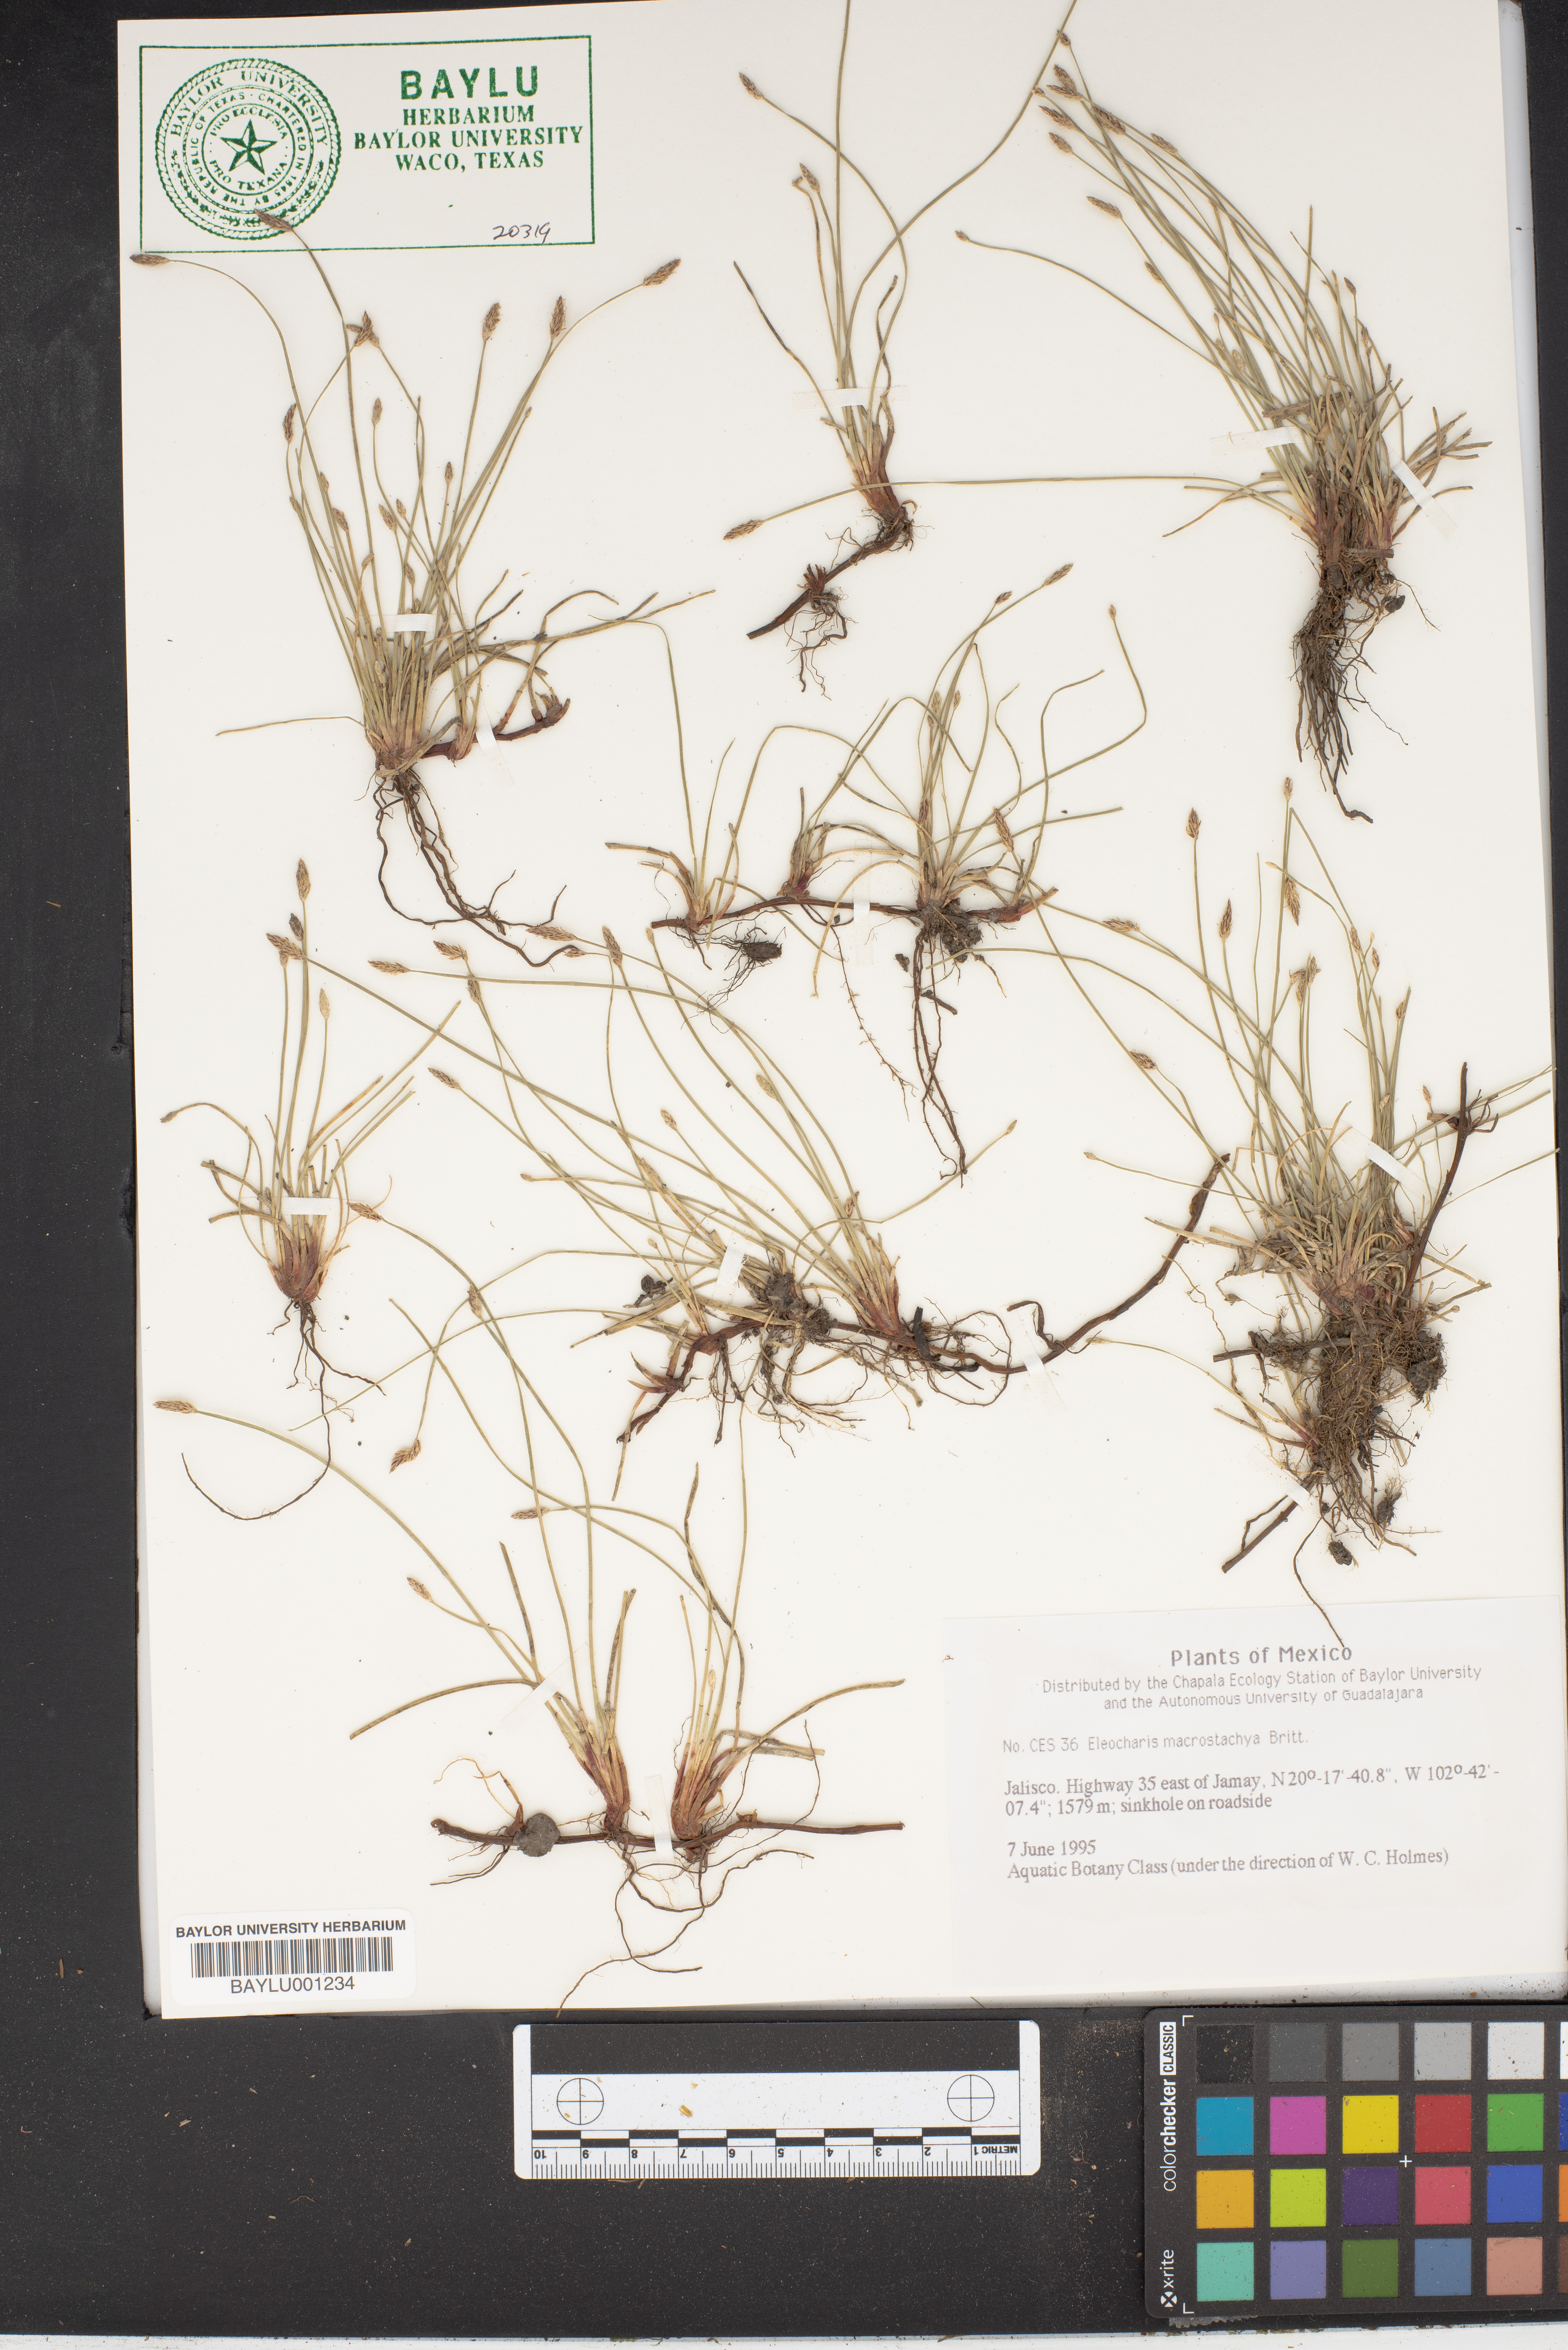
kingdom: Plantae
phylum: Tracheophyta
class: Liliopsida
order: Poales
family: Cyperaceae
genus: Eleocharis
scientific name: Eleocharis macrostachya
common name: Pale spikerush
